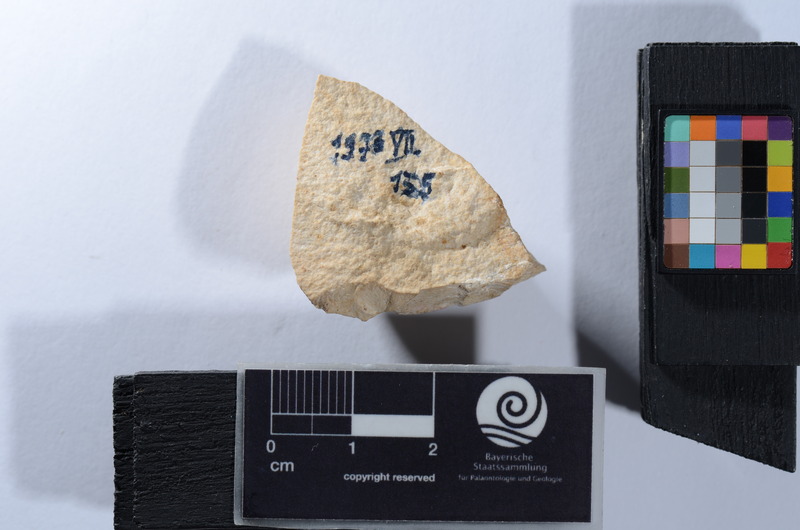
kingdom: Animalia
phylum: Chordata
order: Lepisosteiformes
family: Lepidotidae
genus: Lepidotes
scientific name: Lepidotes
